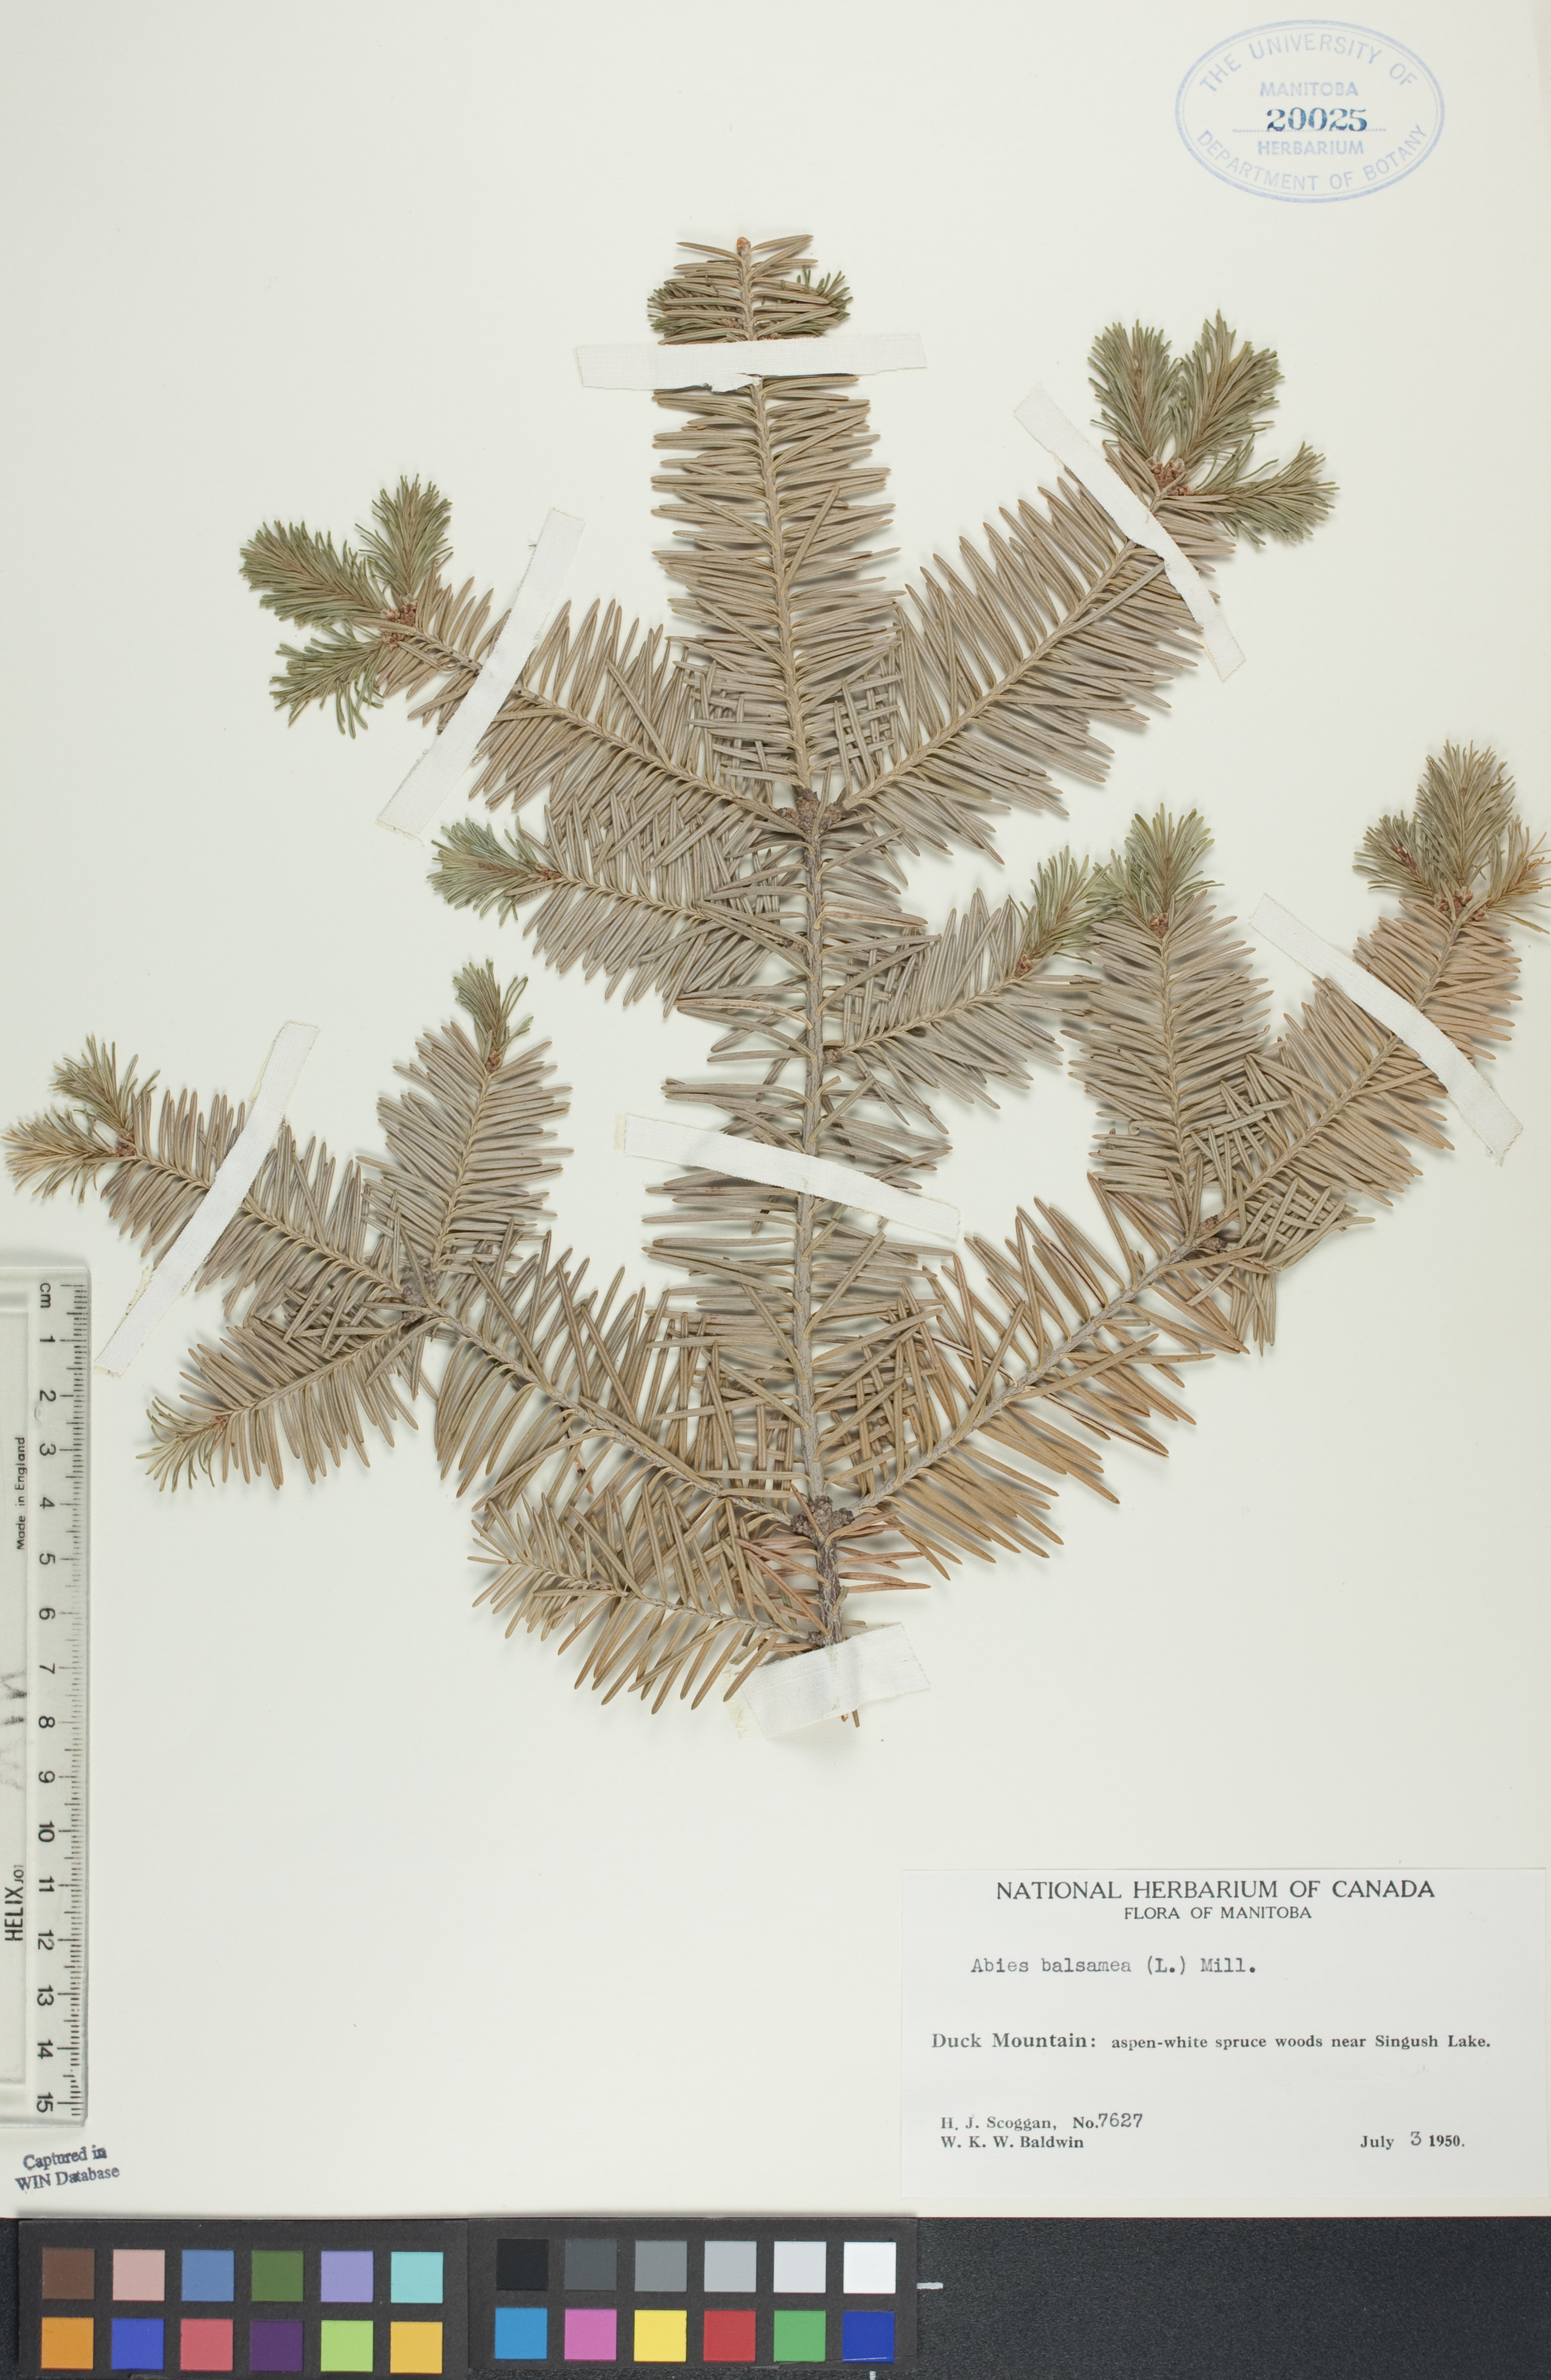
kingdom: Plantae
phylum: Tracheophyta
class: Pinopsida
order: Pinales
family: Pinaceae
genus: Abies
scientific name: Abies balsamea
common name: Balsam fir
